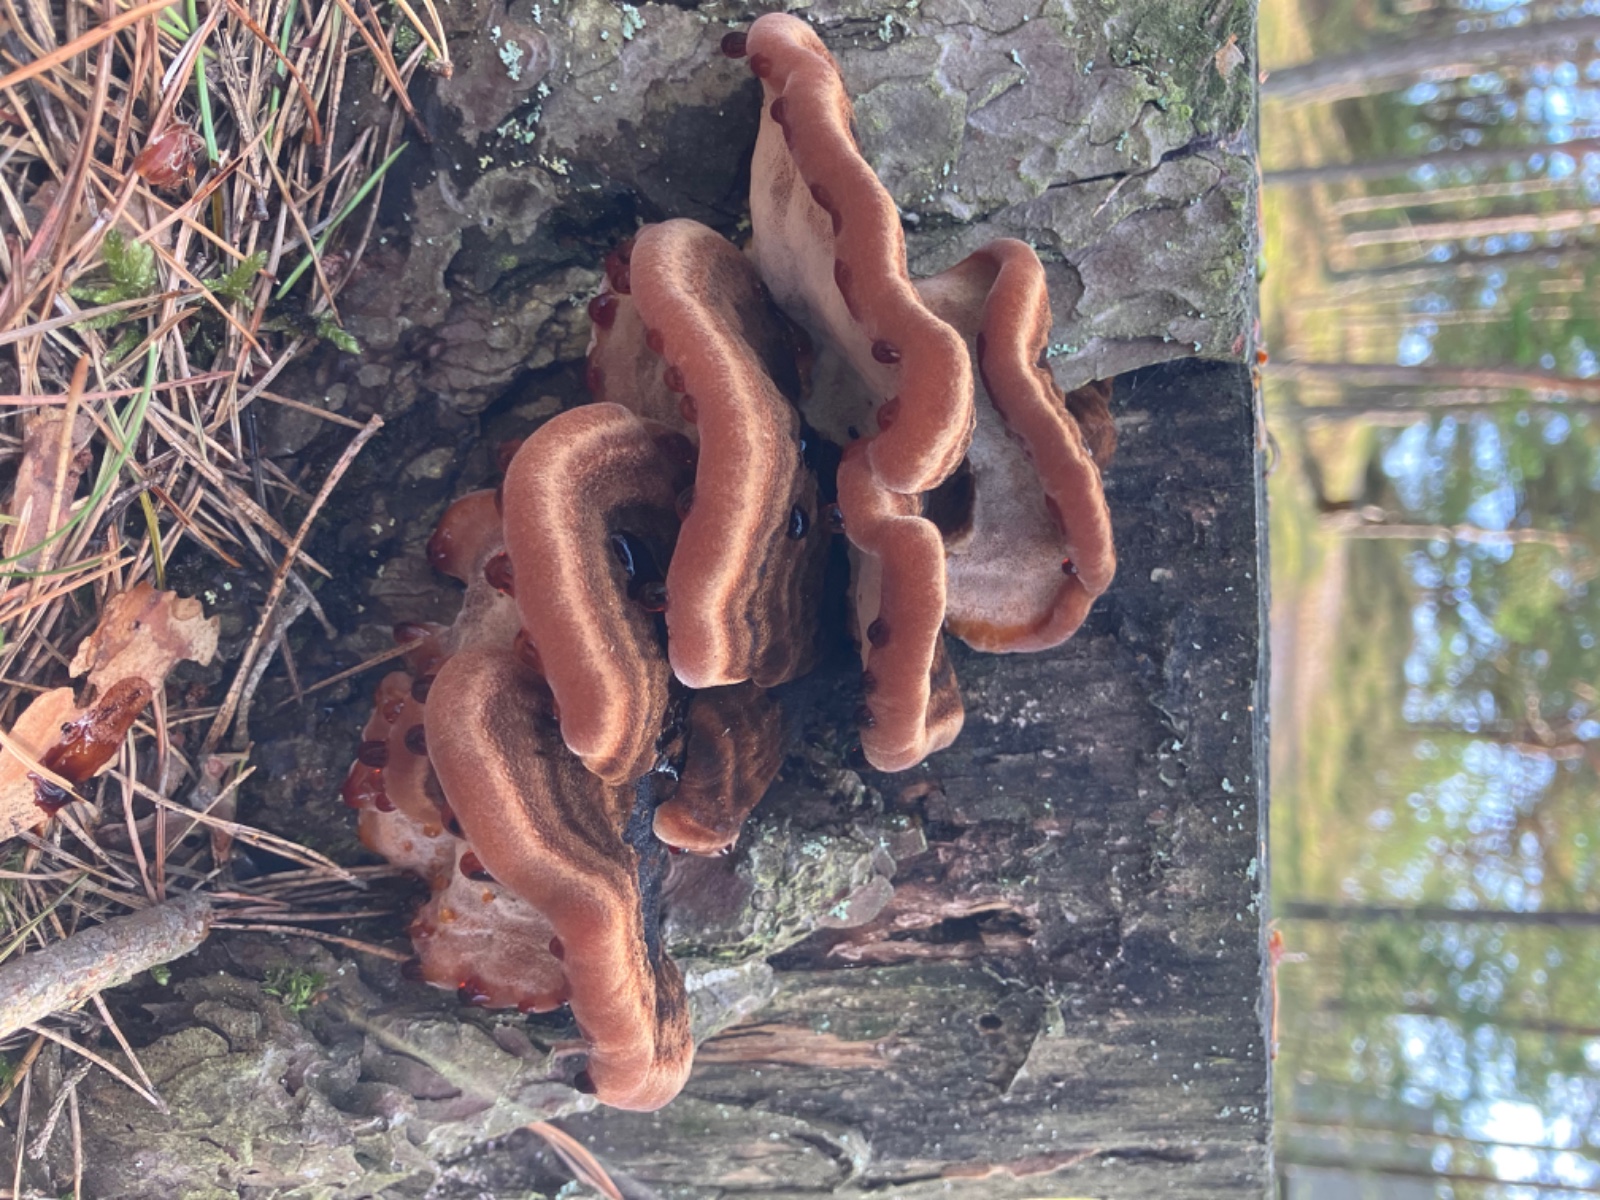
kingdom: Fungi
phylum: Basidiomycota
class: Agaricomycetes
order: Polyporales
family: Ischnodermataceae
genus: Ischnoderma
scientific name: Ischnoderma benzoinum
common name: gran-tjæreporesvamp
